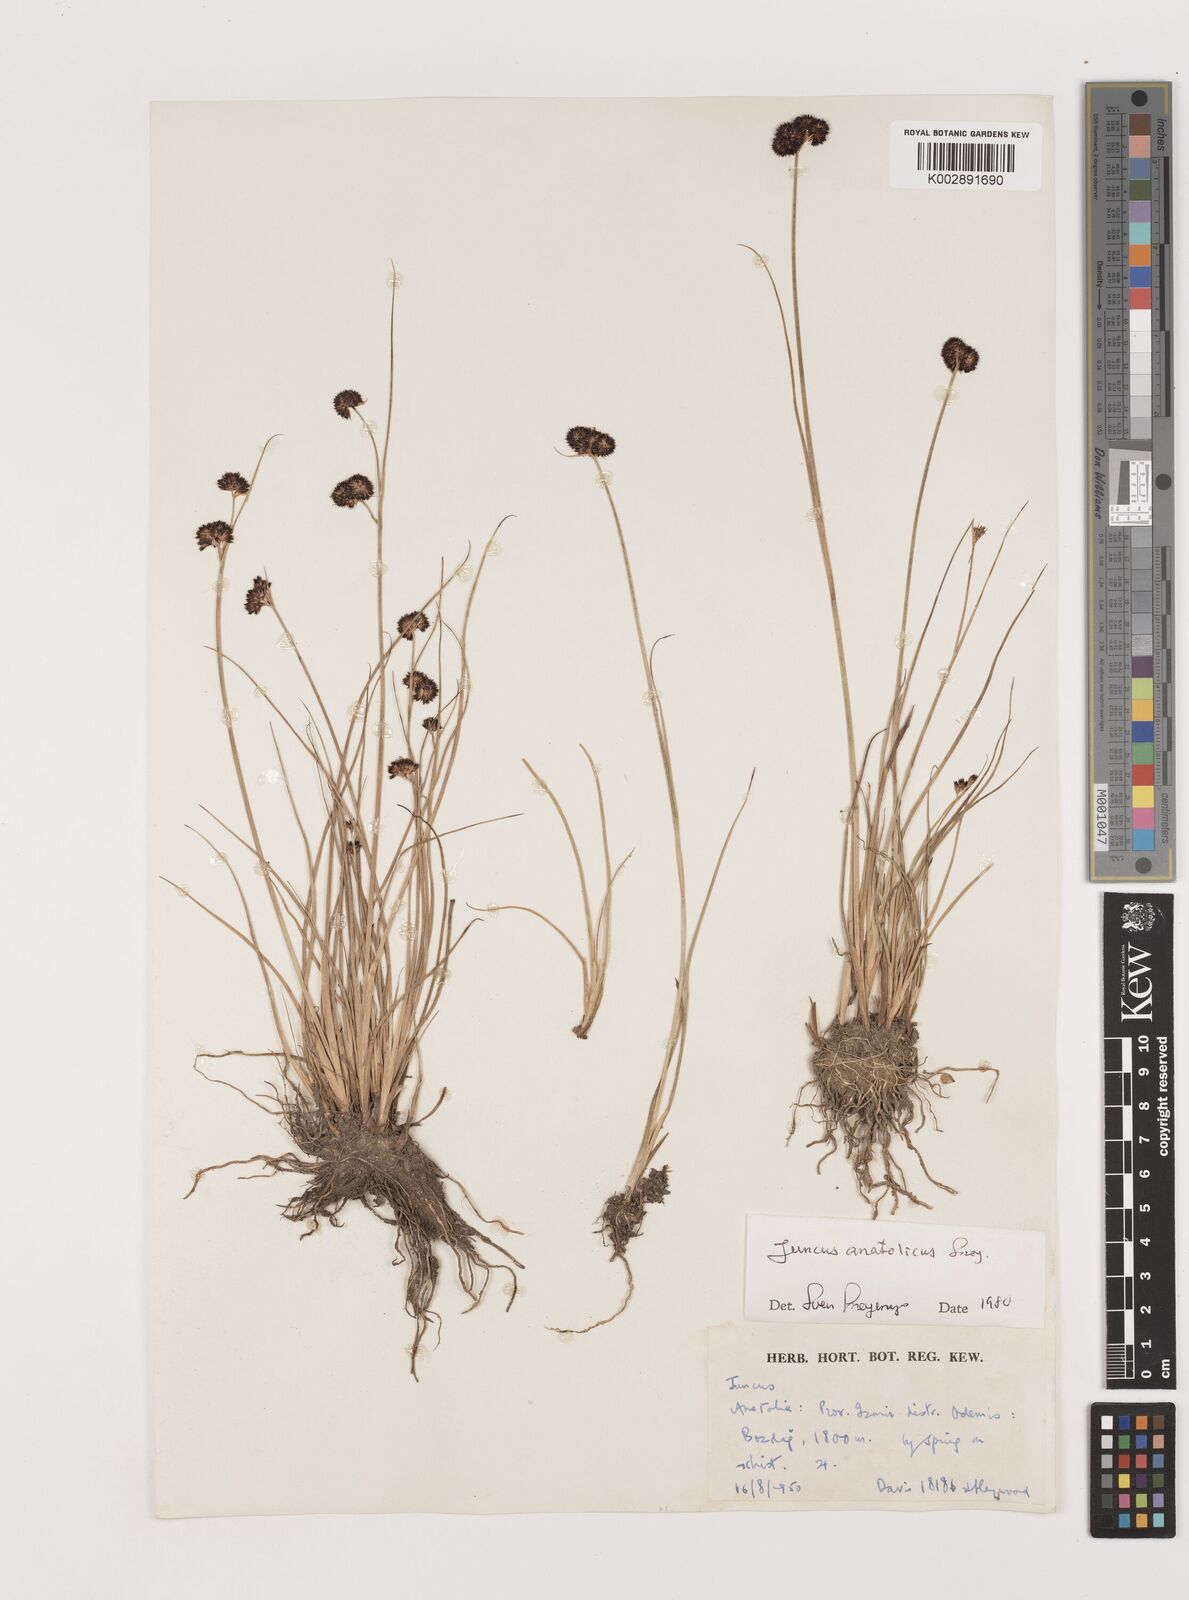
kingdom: Plantae
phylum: Tracheophyta
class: Liliopsida
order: Poales
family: Juncaceae
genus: Juncus
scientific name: Juncus alpigenus
